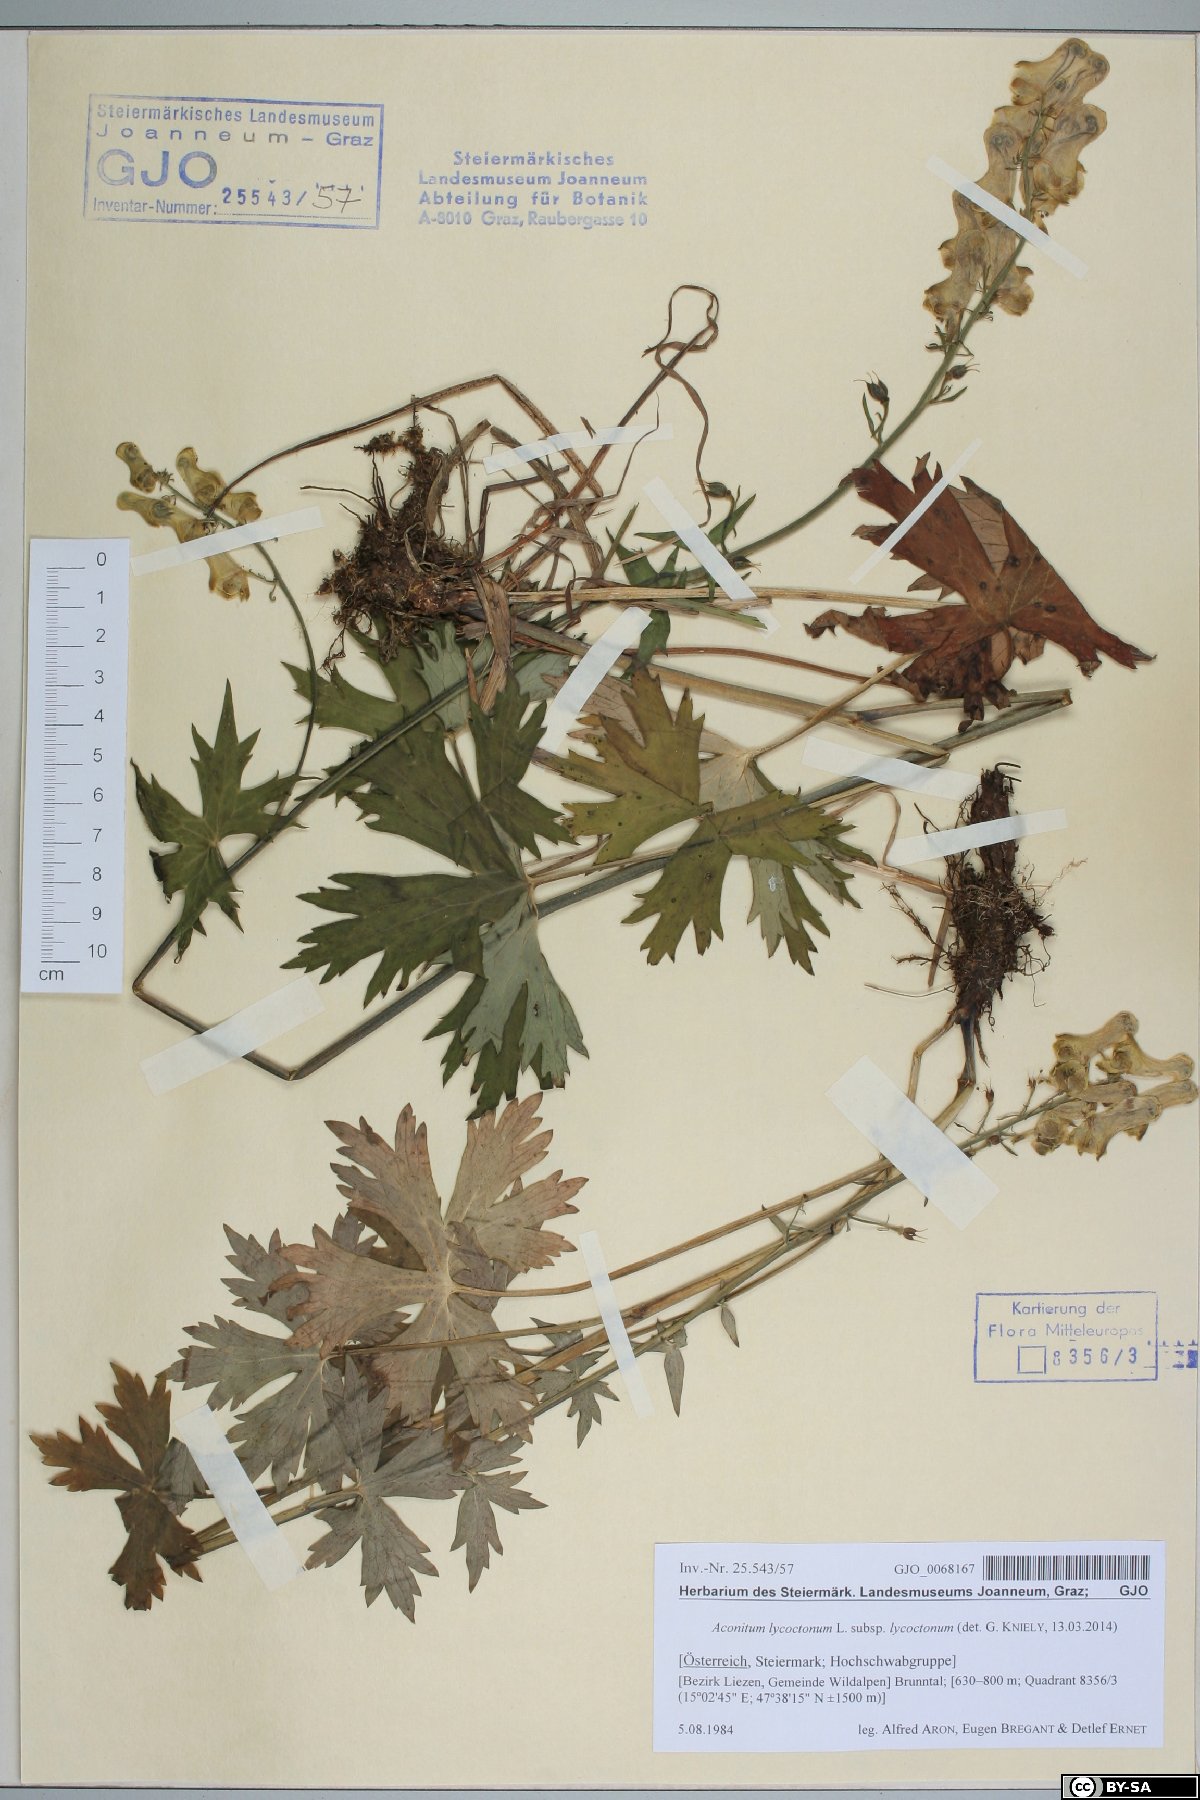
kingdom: Plantae
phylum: Tracheophyta
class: Magnoliopsida
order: Ranunculales
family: Ranunculaceae
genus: Aconitum
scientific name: Aconitum lycoctonum
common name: Wolf's-bane
